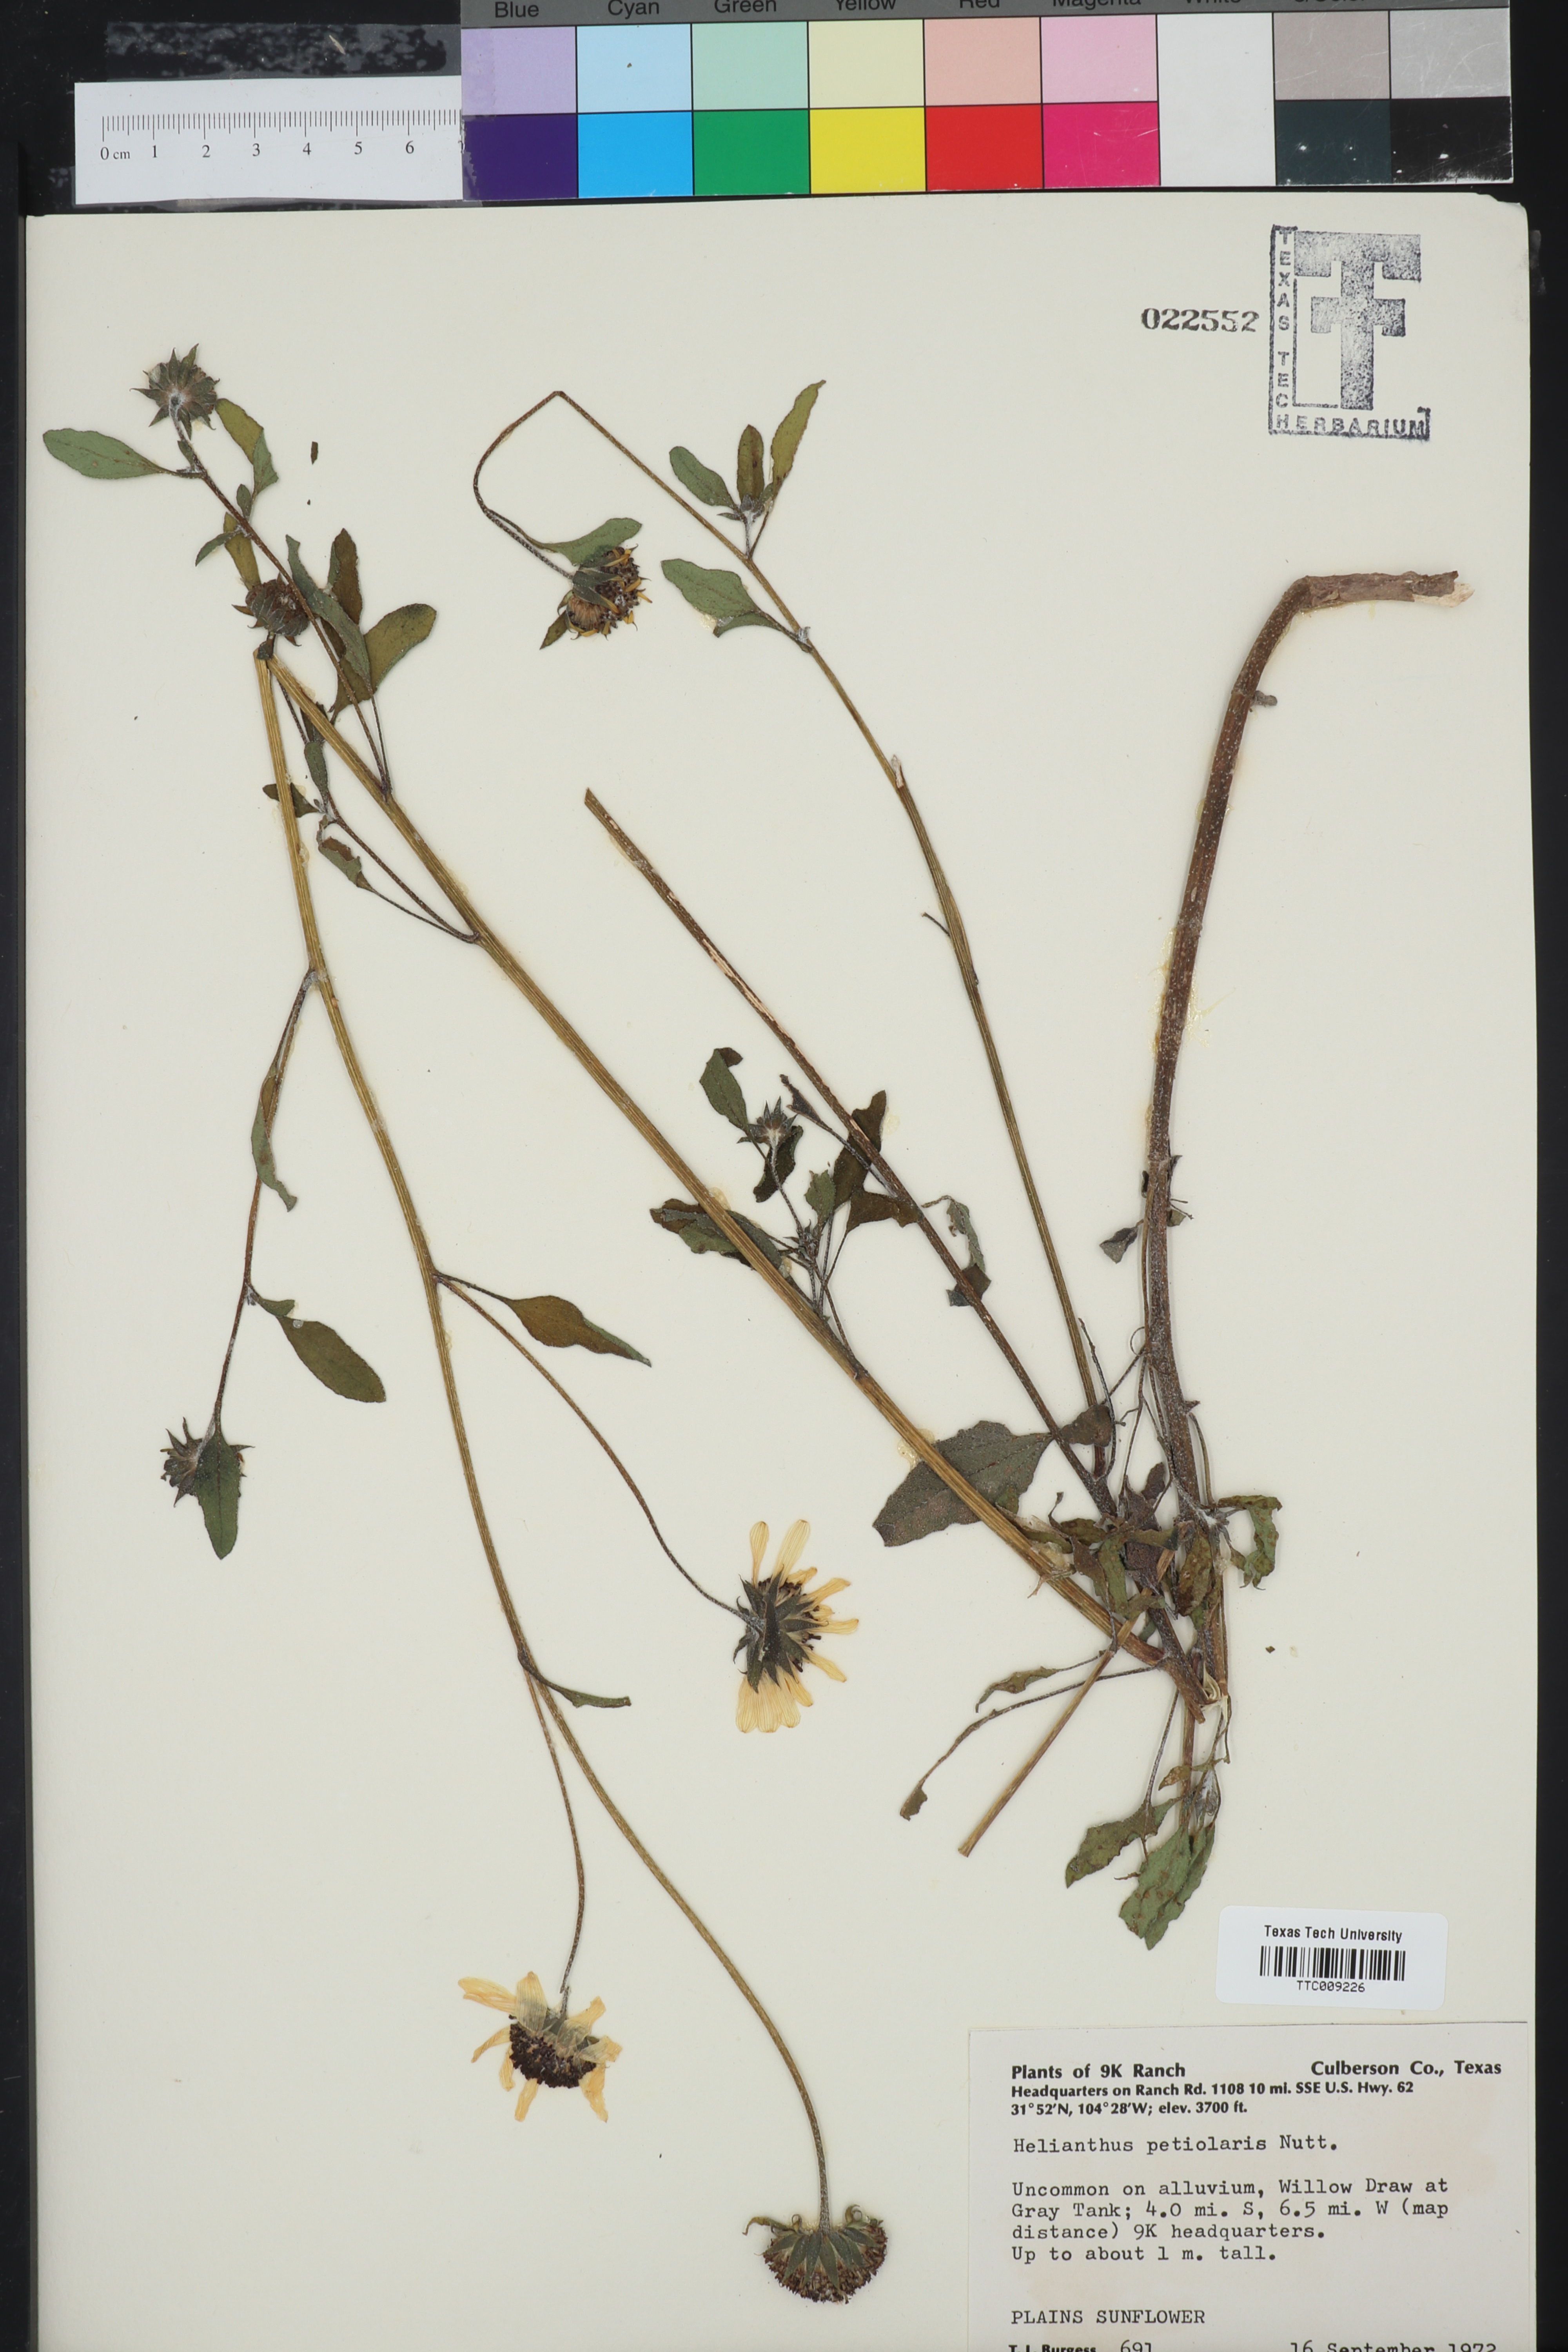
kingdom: Plantae
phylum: Tracheophyta
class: Magnoliopsida
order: Asterales
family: Asteraceae
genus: Helianthus
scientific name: Helianthus petiolaris
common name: Lesser sunflower
